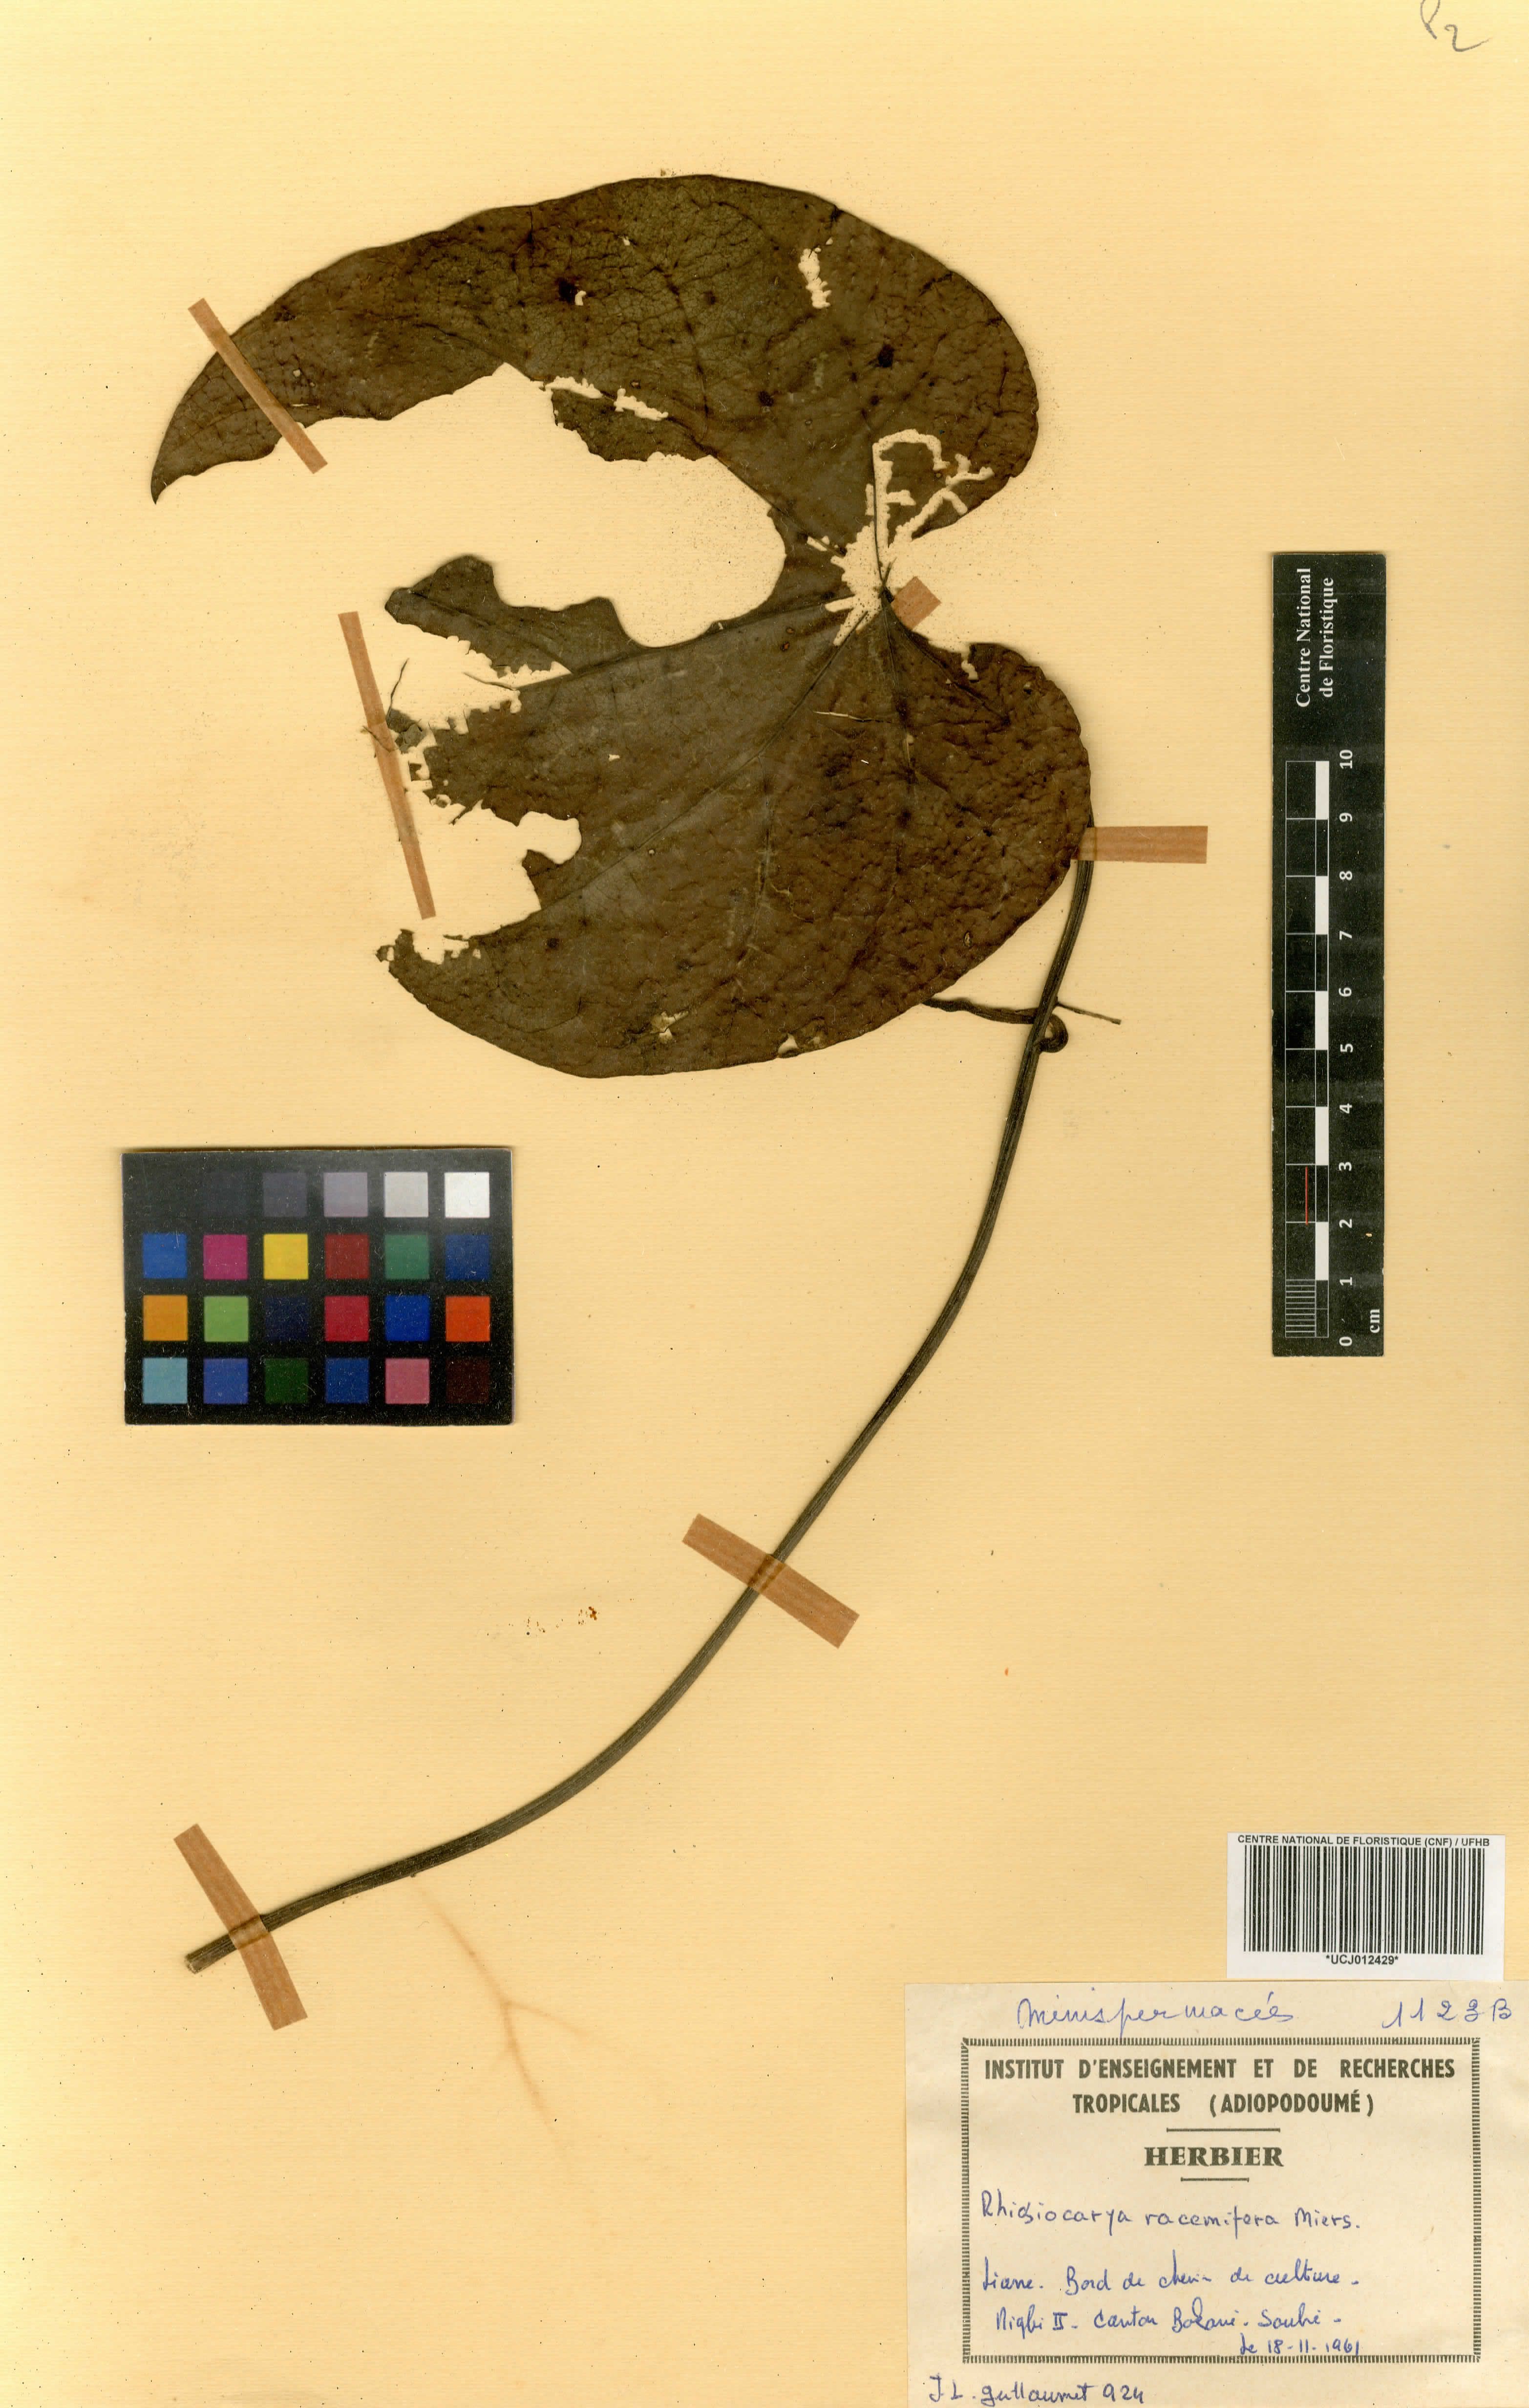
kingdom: Plantae
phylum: Tracheophyta
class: Magnoliopsida
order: Ranunculales
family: Menispermaceae
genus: Rhigiocarya
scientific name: Rhigiocarya racemifera
